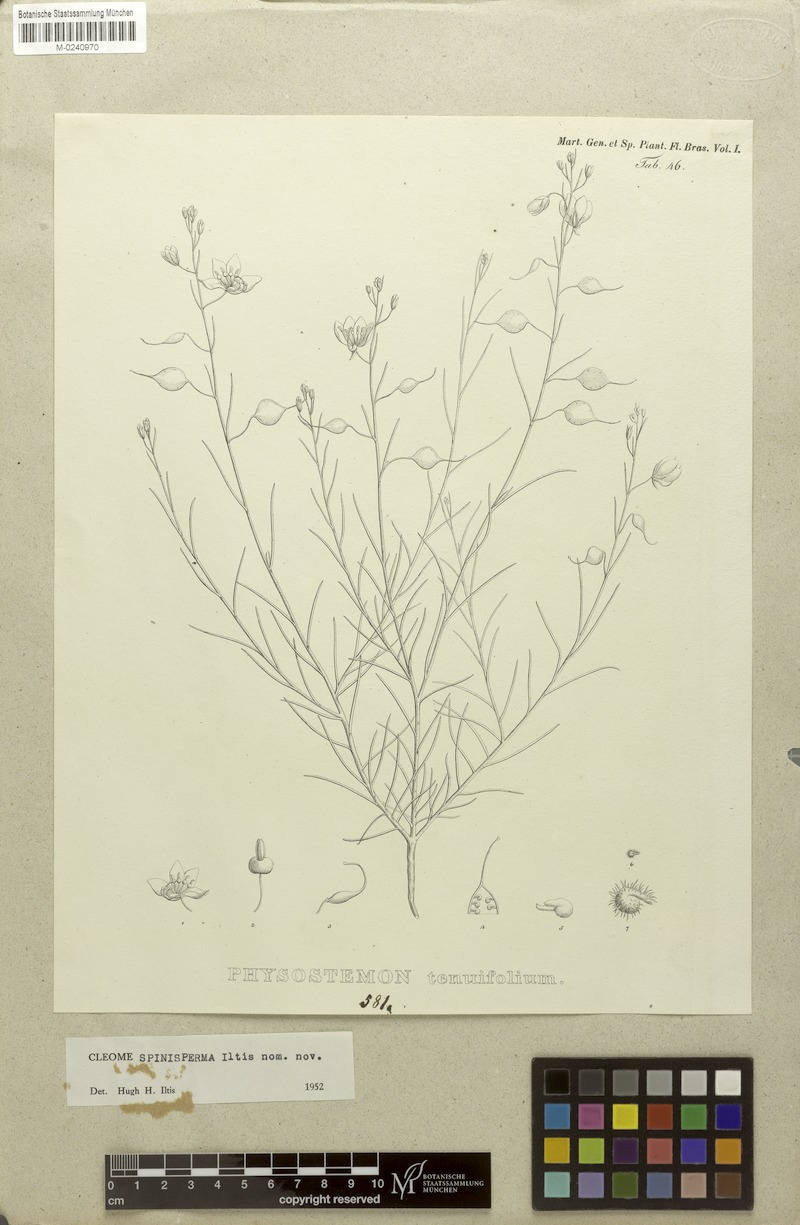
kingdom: Plantae
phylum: Tracheophyta
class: Magnoliopsida
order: Brassicales
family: Cleomaceae
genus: Physostemon
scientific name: Physostemon tenuifolius
